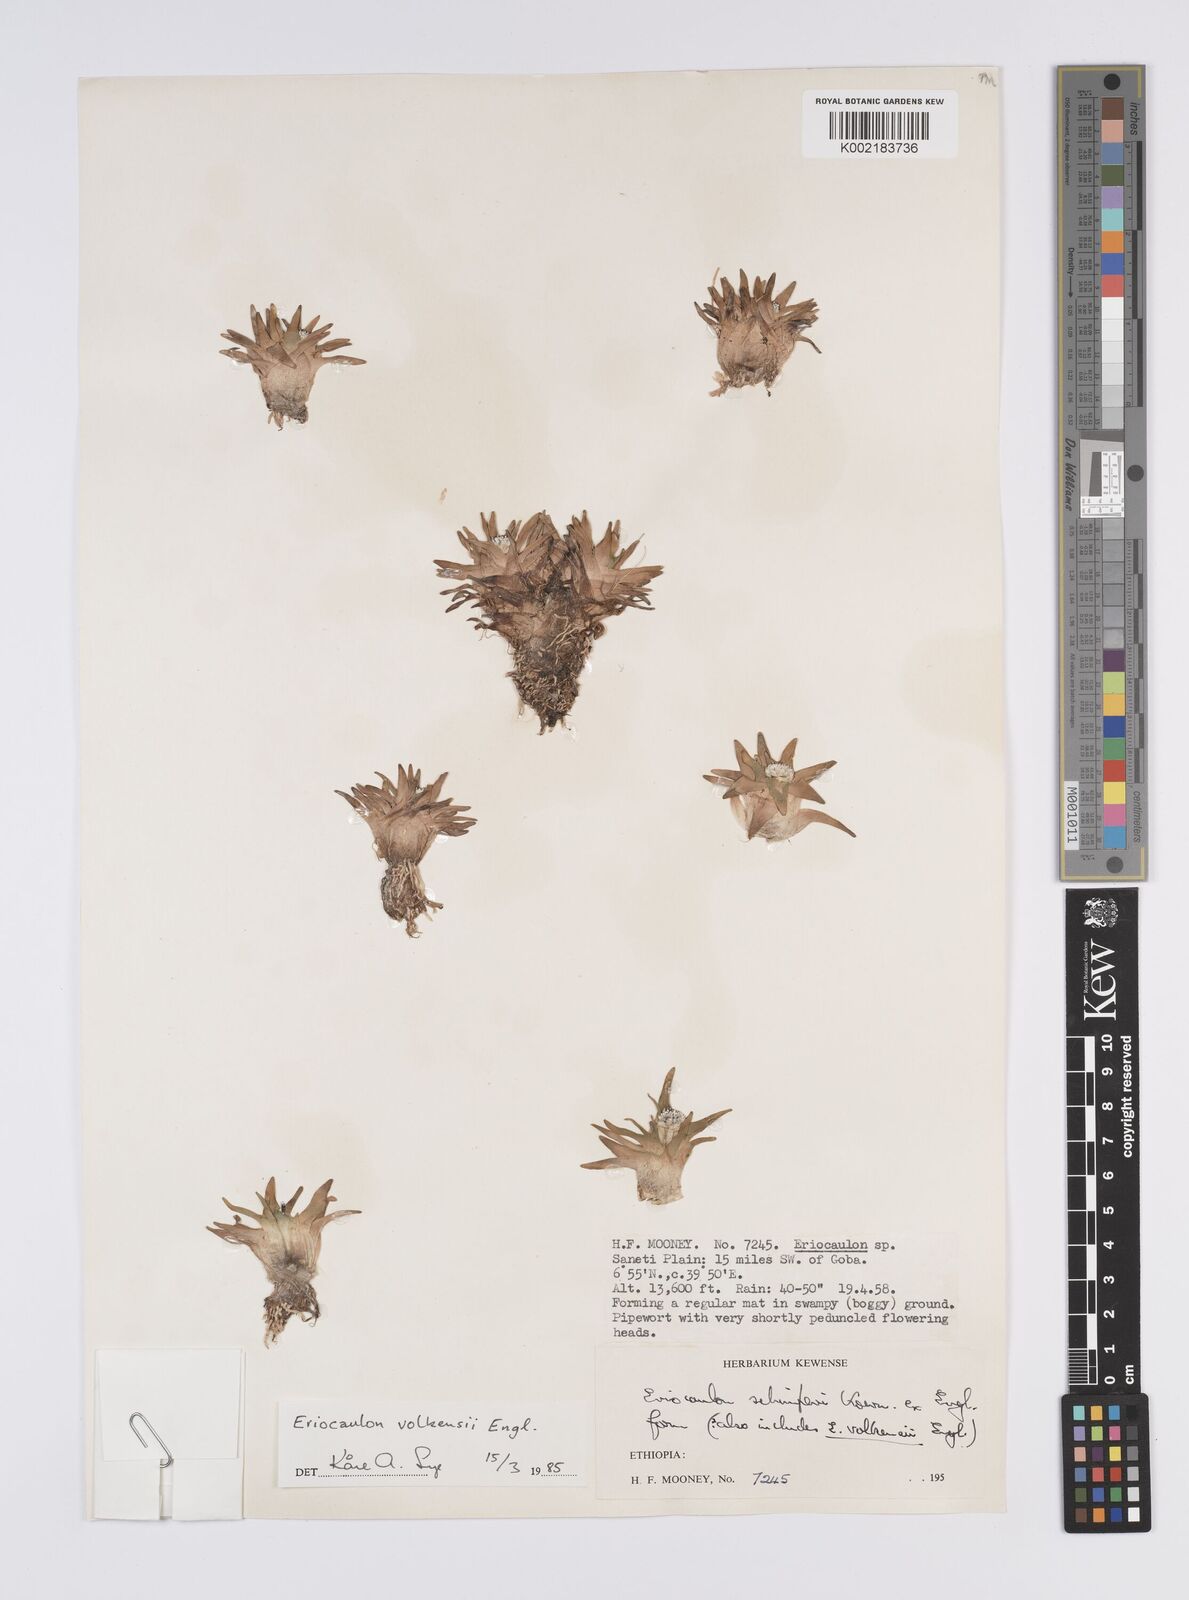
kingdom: Plantae
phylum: Tracheophyta
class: Liliopsida
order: Poales
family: Eriocaulaceae
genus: Eriocaulon
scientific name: Eriocaulon schimperi
